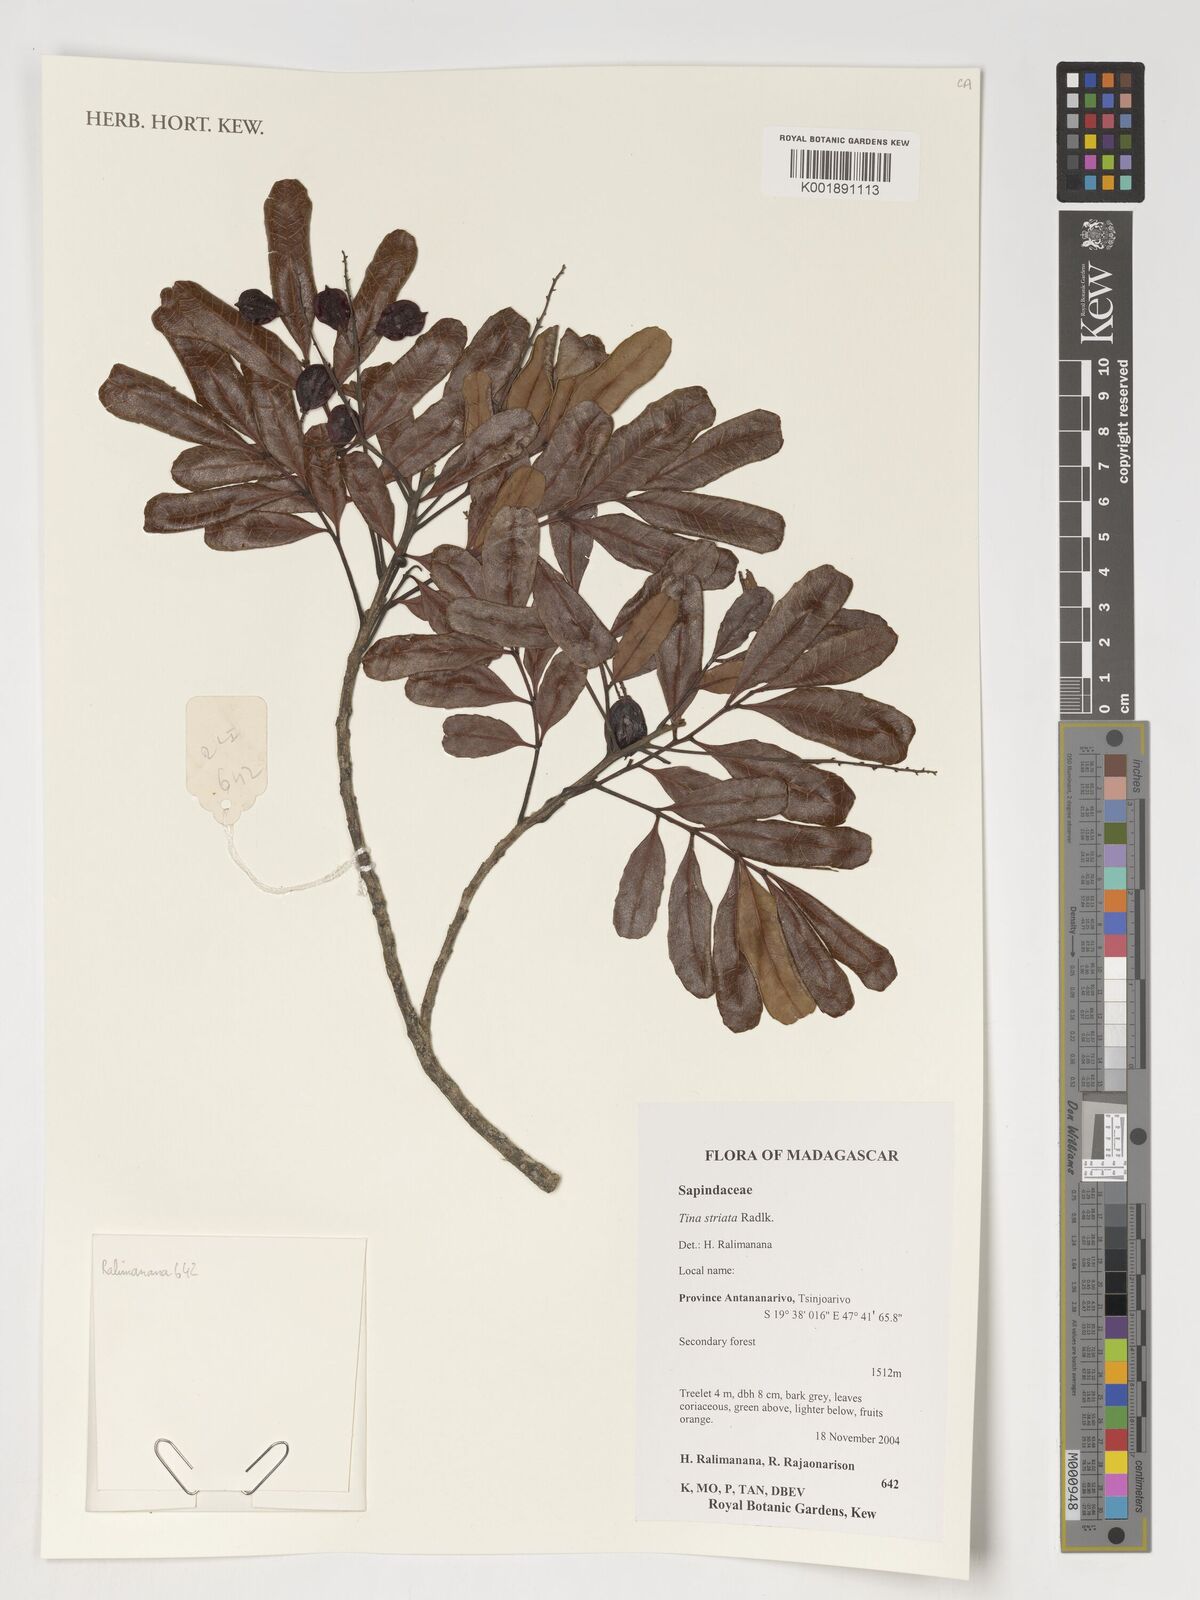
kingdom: Plantae
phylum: Tracheophyta
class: Magnoliopsida
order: Sapindales
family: Sapindaceae
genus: Tina
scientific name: Tina striata
